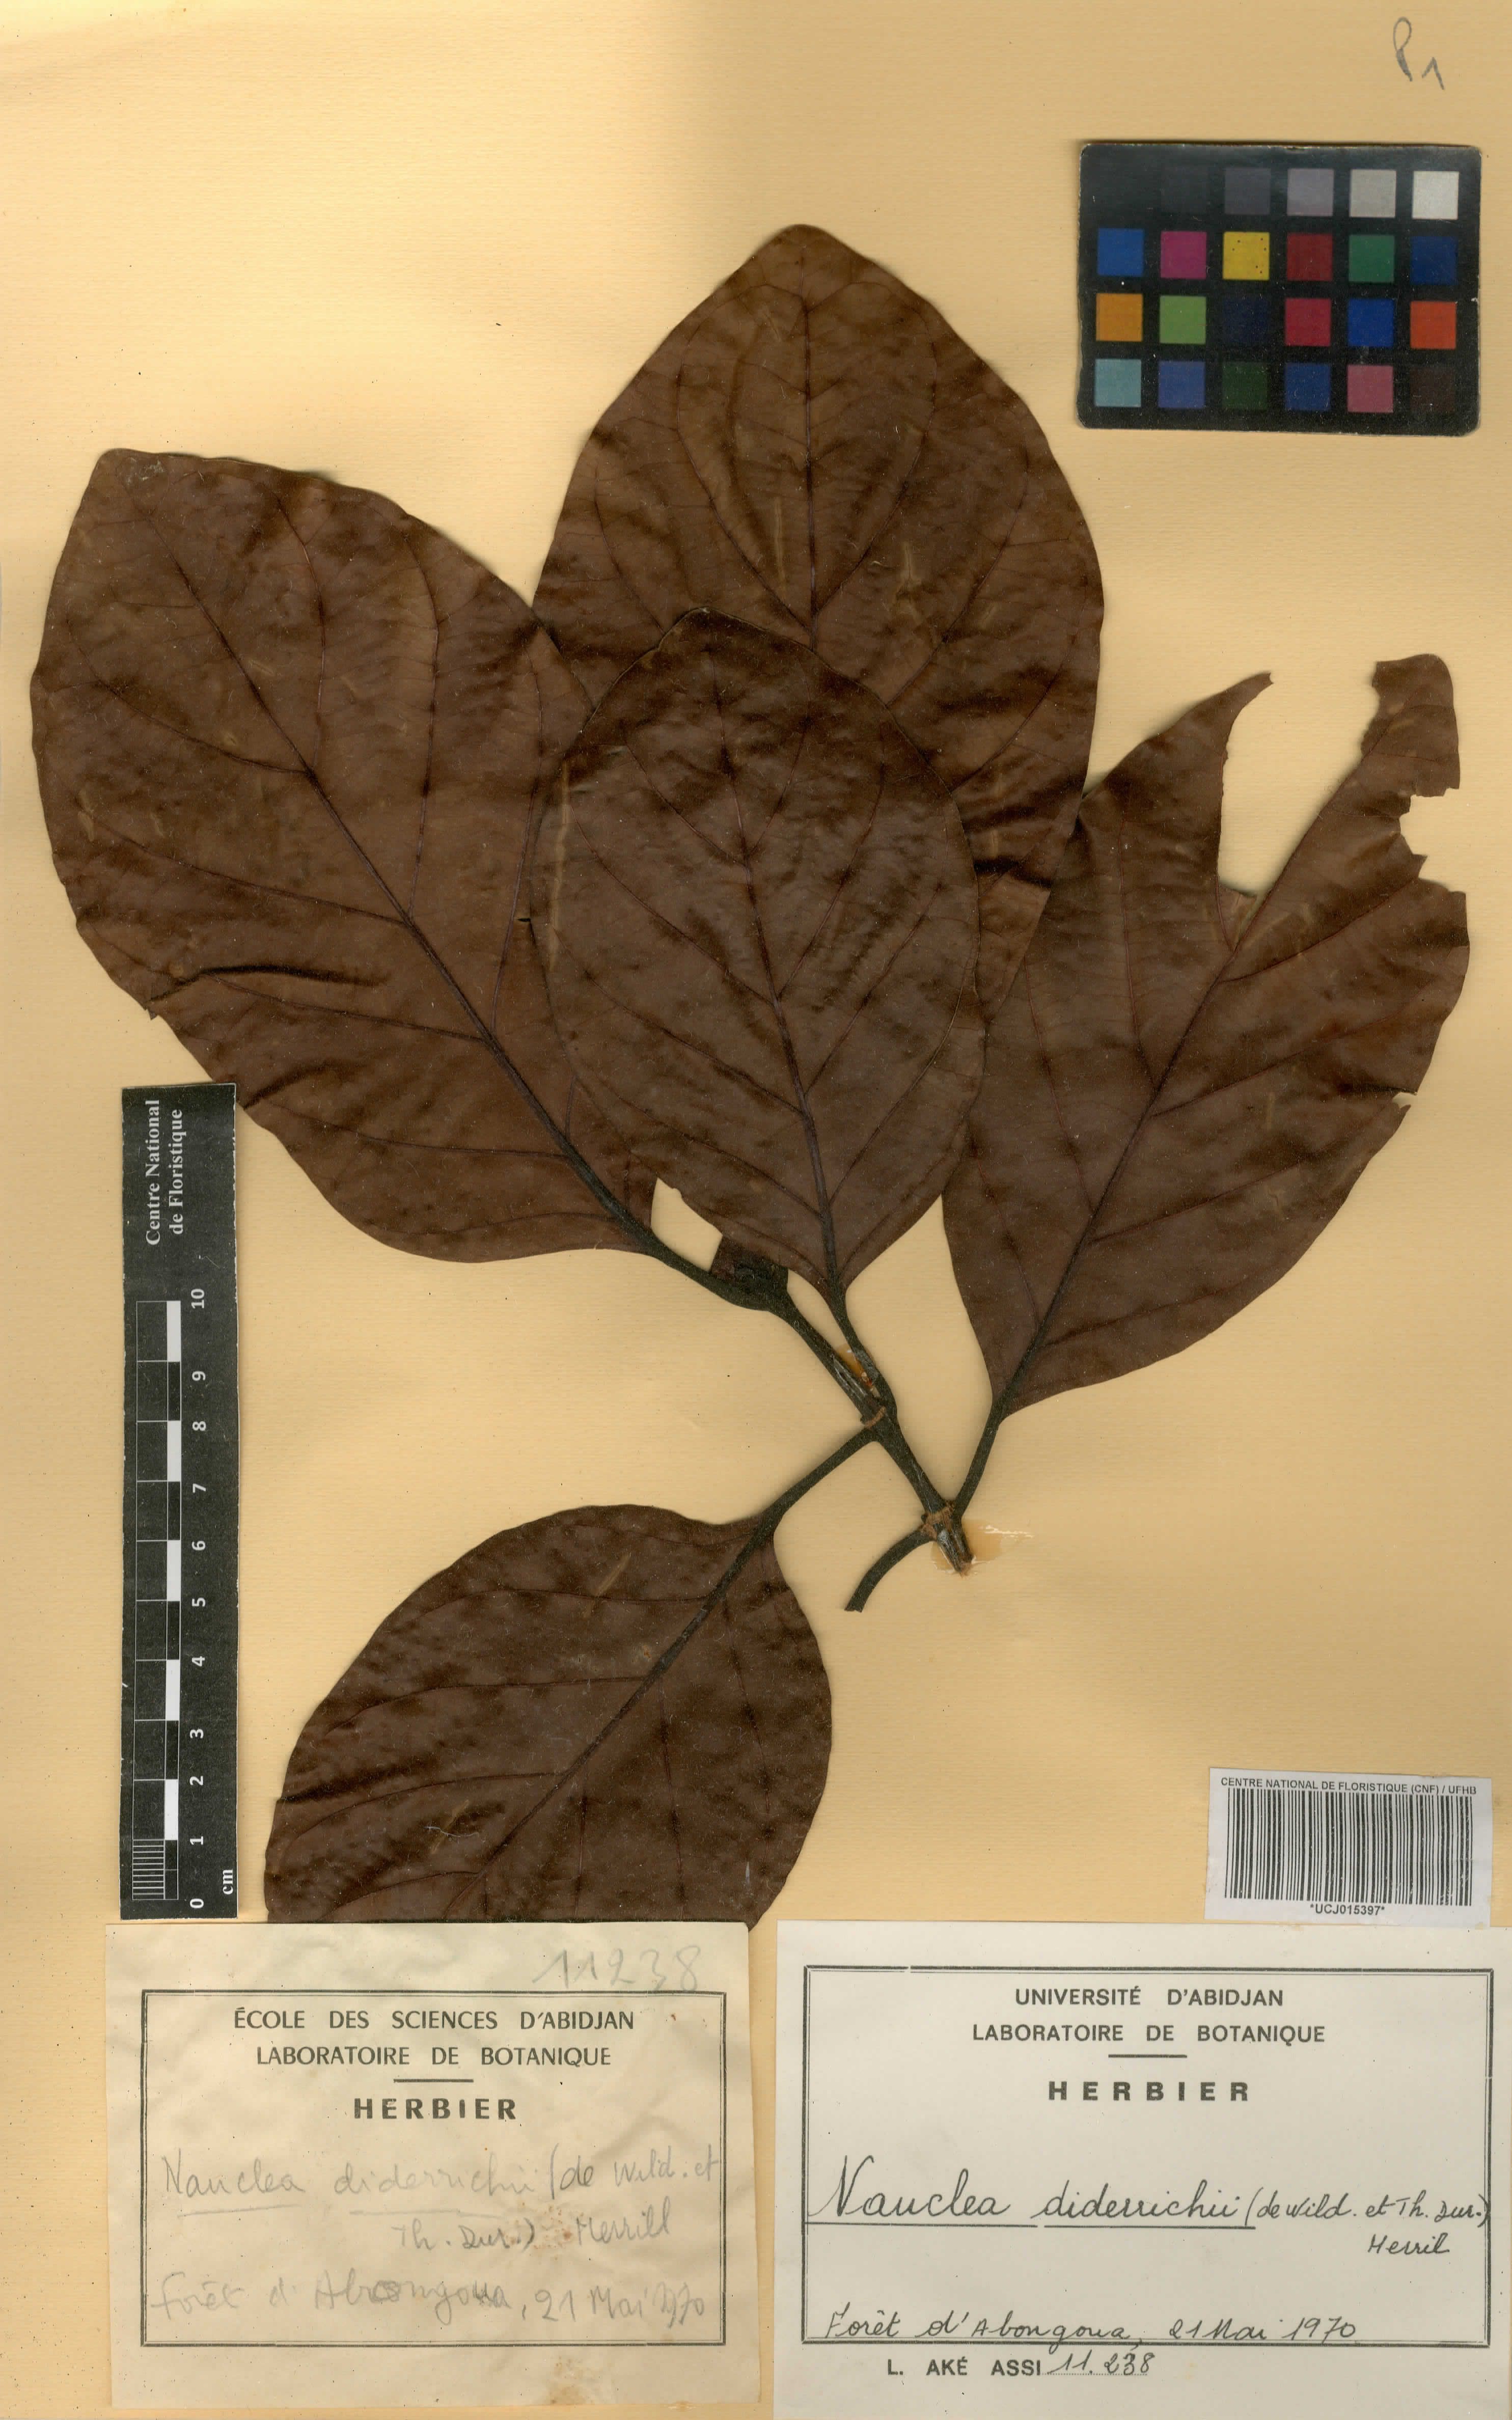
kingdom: Plantae
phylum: Tracheophyta
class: Magnoliopsida
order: Gentianales
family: Rubiaceae
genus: Nauclea
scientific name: Nauclea diderrichii
